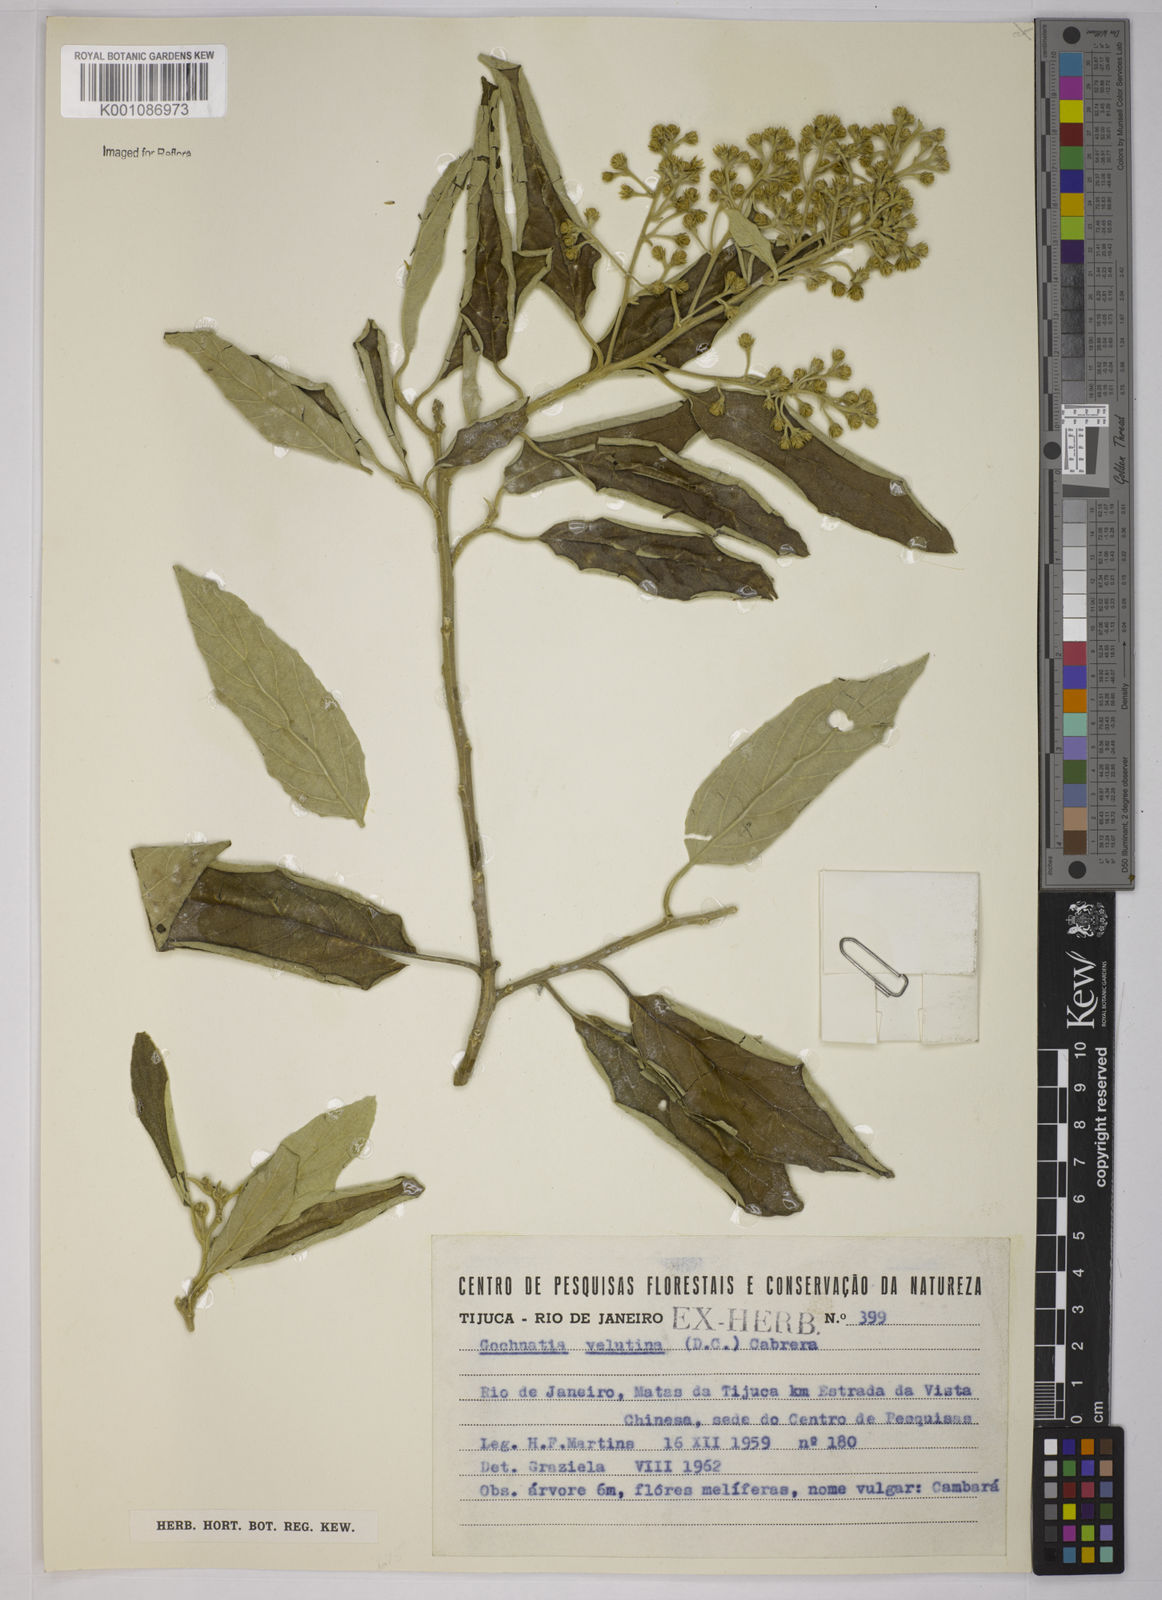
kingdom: Plantae
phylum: Tracheophyta
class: Magnoliopsida
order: Asterales
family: Asteraceae
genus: Moquiniastrum
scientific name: Moquiniastrum polymorphum
